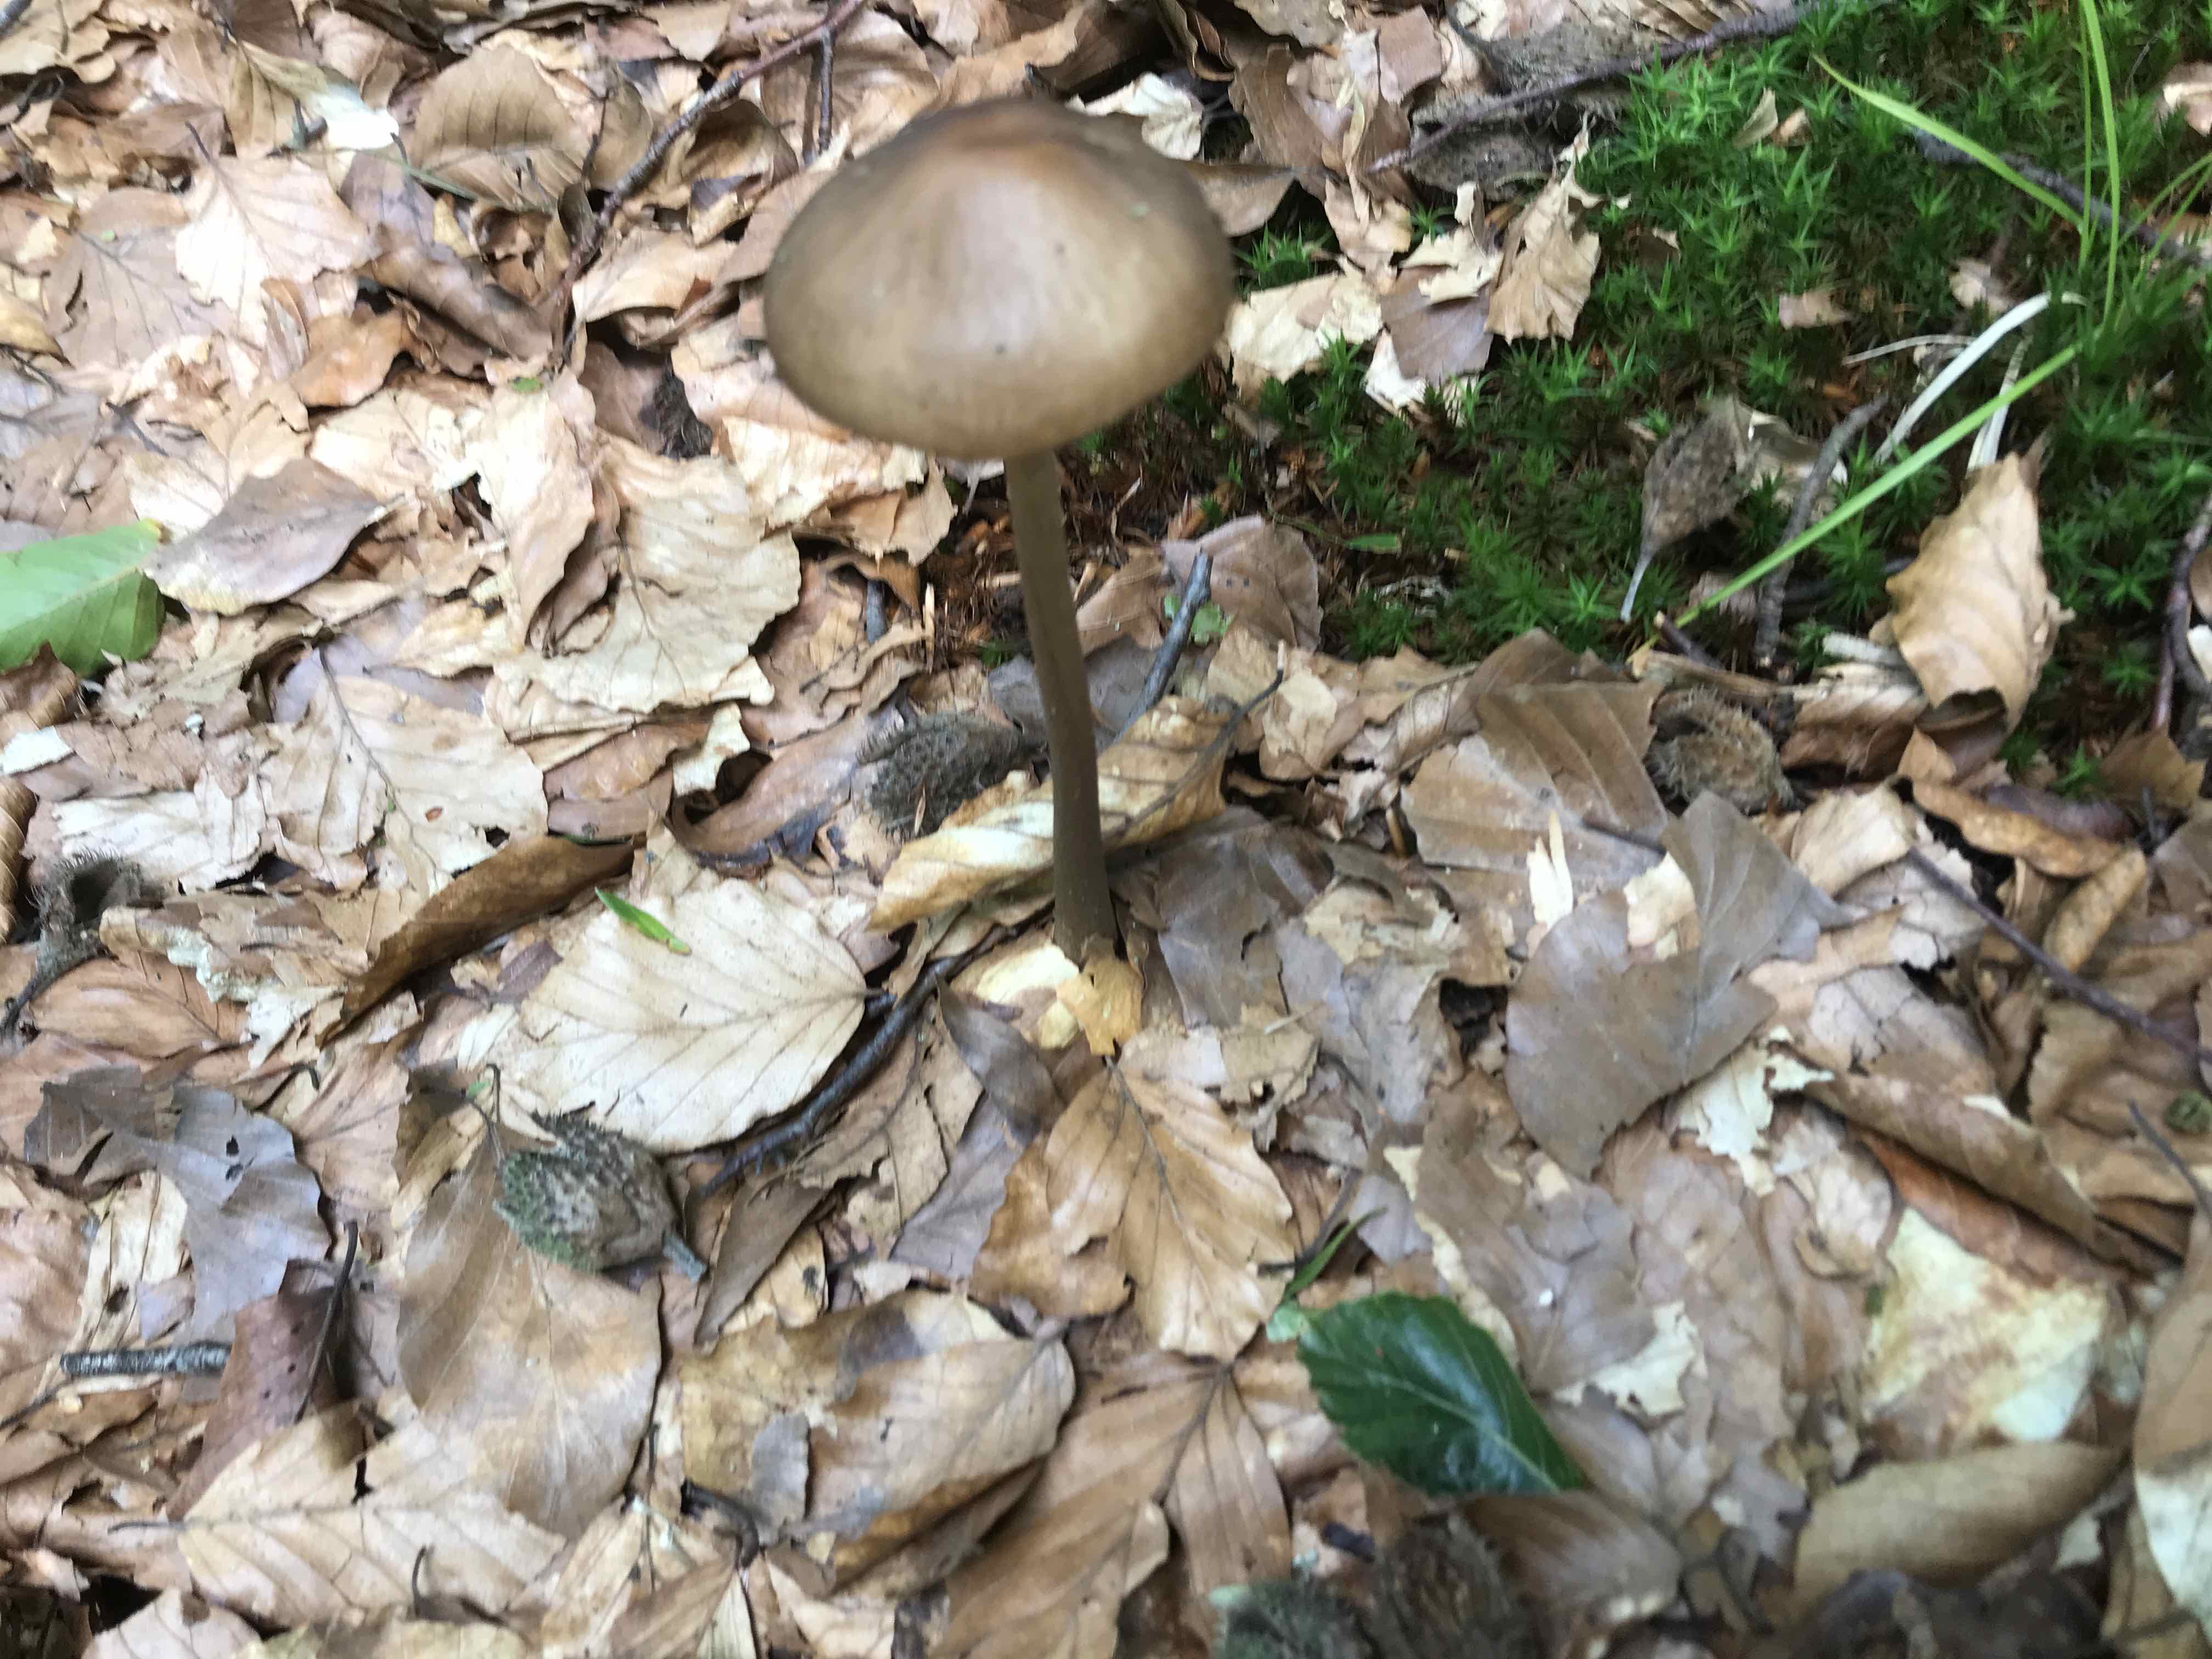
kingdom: Fungi
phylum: Basidiomycota
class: Agaricomycetes
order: Agaricales
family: Physalacriaceae
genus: Hymenopellis
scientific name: Hymenopellis radicata
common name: almindelig pælerodshat
